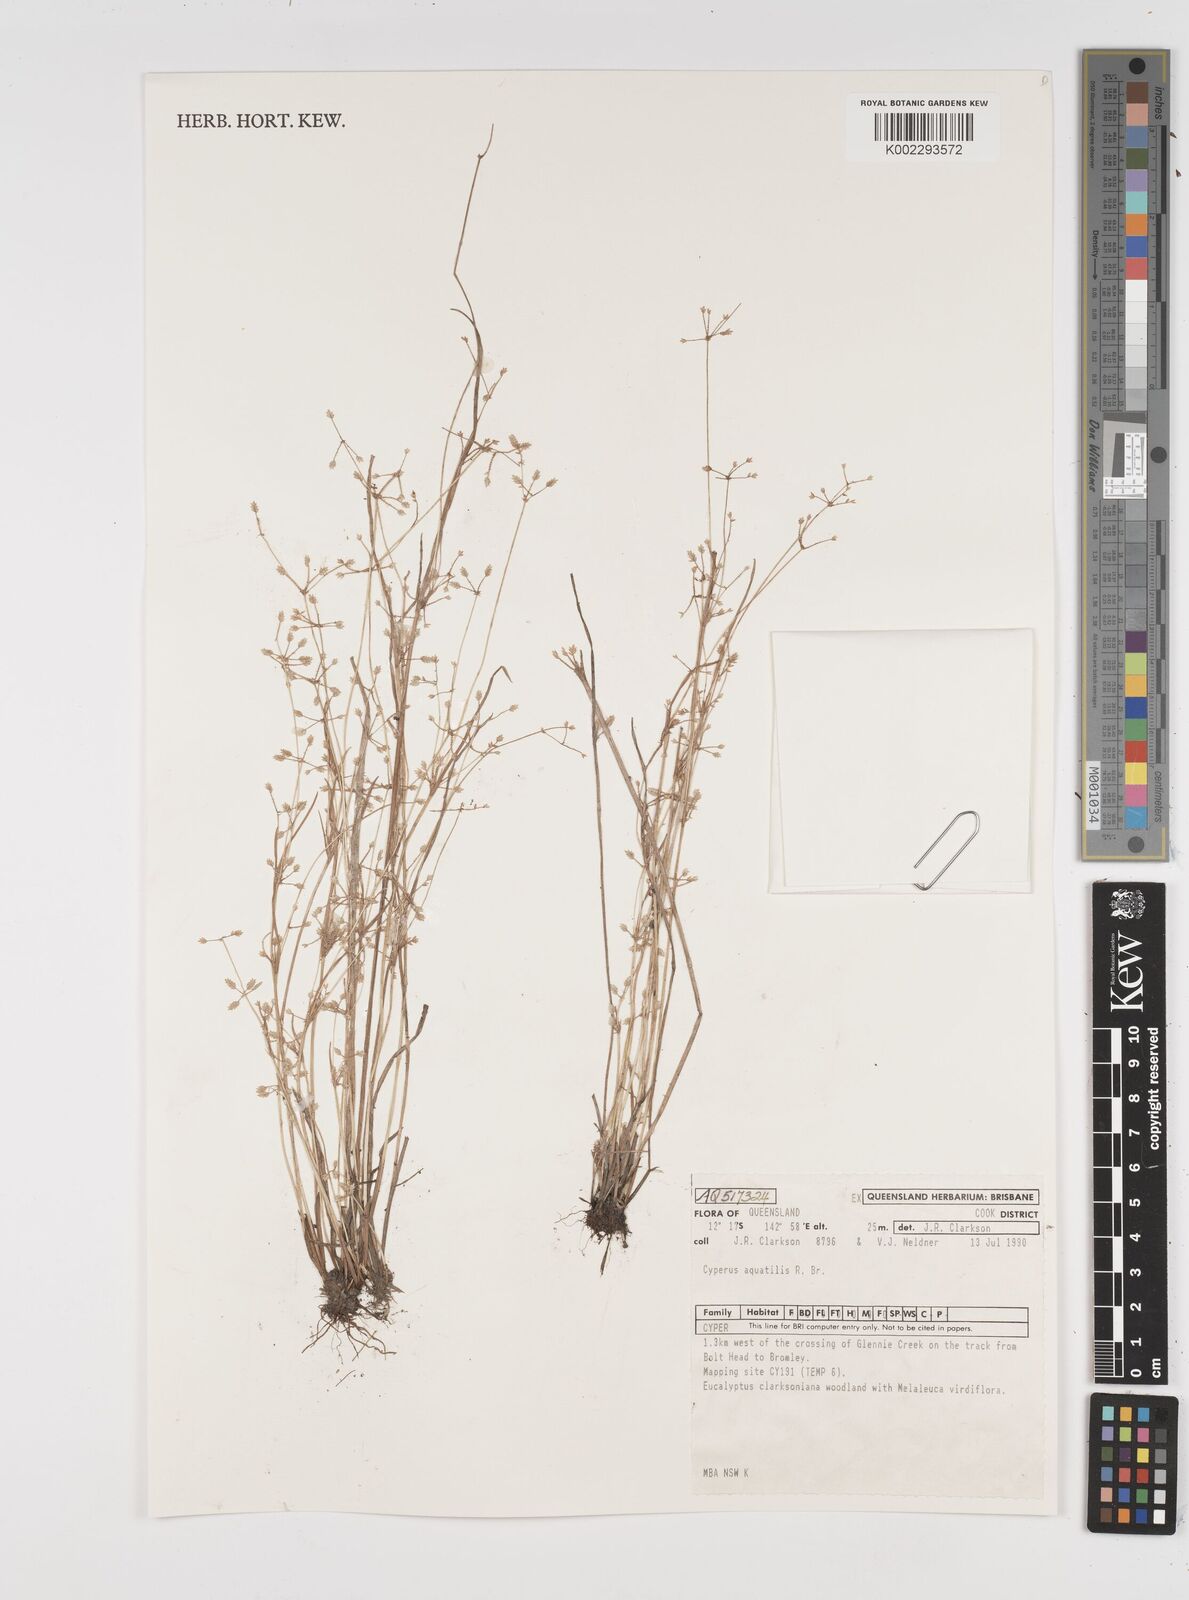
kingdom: Plantae
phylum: Tracheophyta
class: Liliopsida
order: Poales
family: Cyperaceae
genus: Cyperus
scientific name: Cyperus aquatilis
